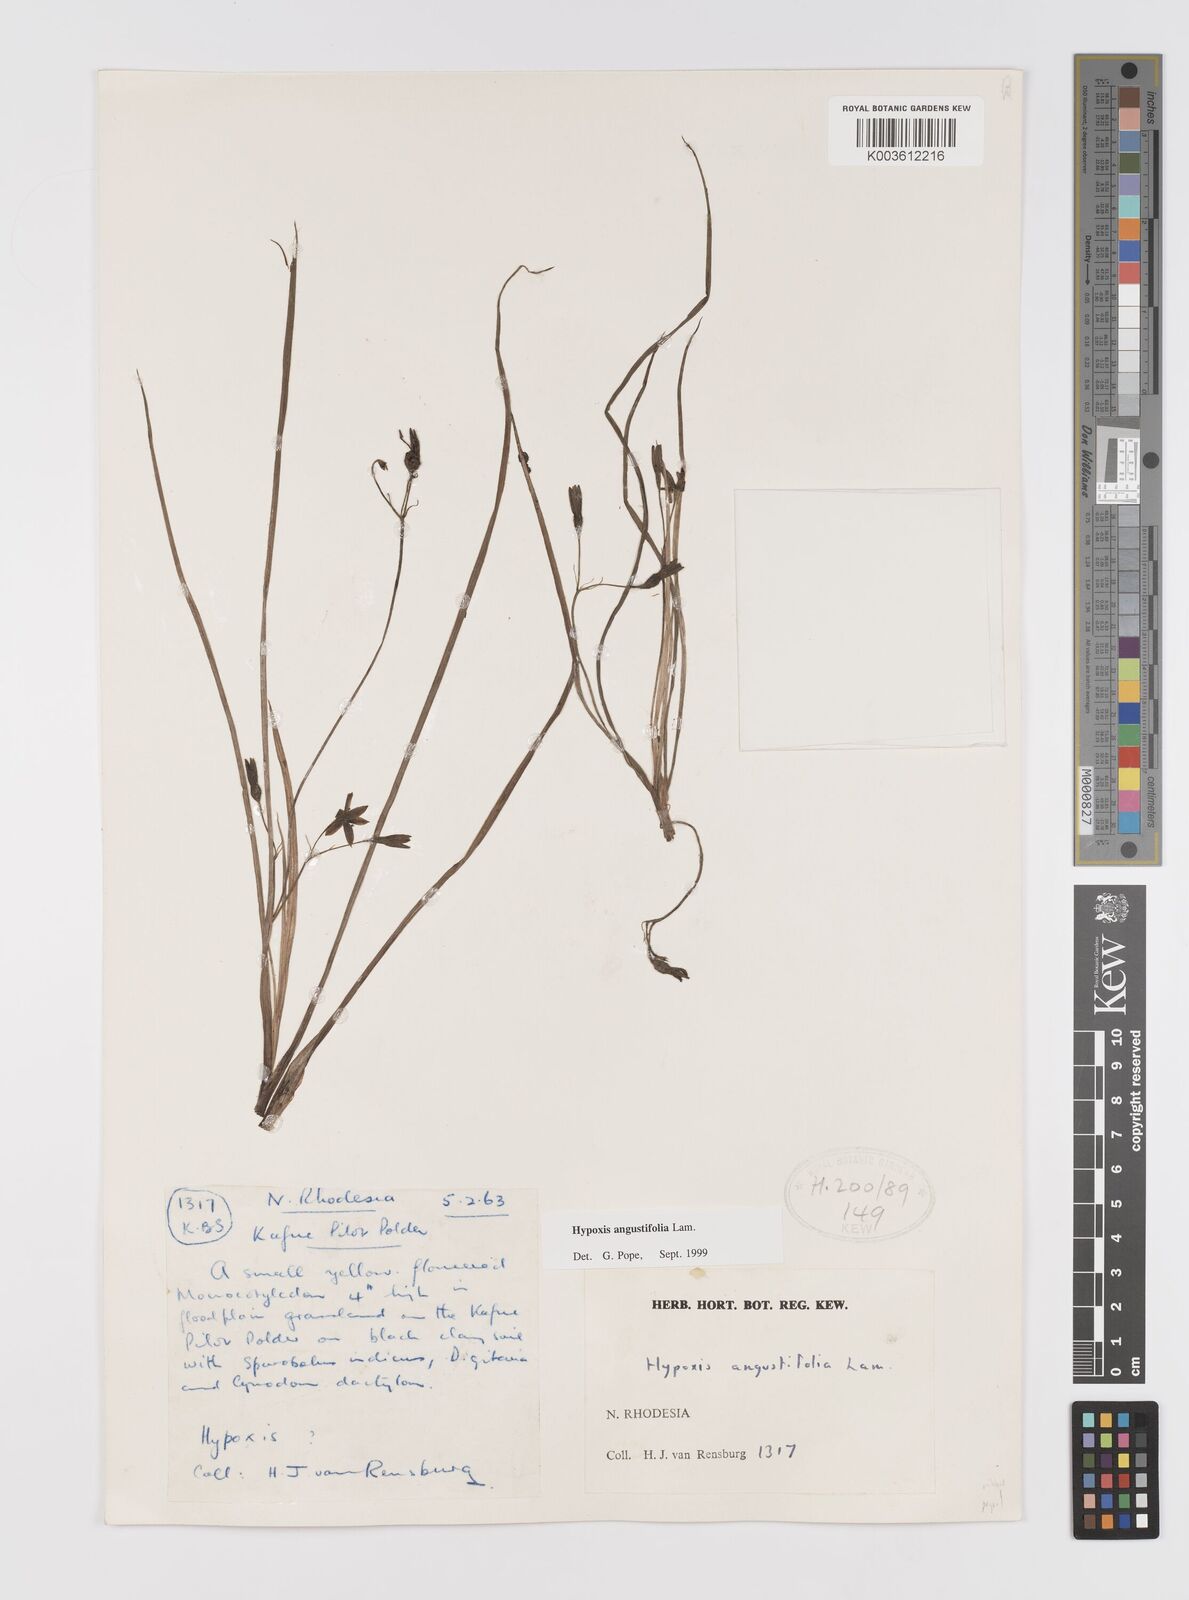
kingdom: Plantae
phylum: Tracheophyta
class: Liliopsida
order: Asparagales
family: Hypoxidaceae
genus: Hypoxis
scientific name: Hypoxis angustifolia
